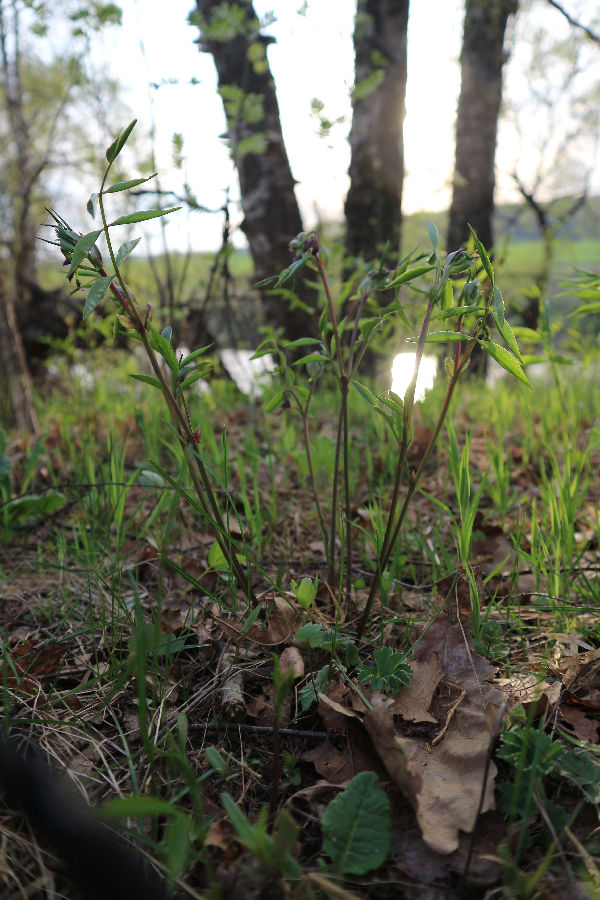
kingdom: Plantae
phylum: Tracheophyta
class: Magnoliopsida
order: Fabales
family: Fabaceae
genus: Lathyrus
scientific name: Lathyrus vernus
